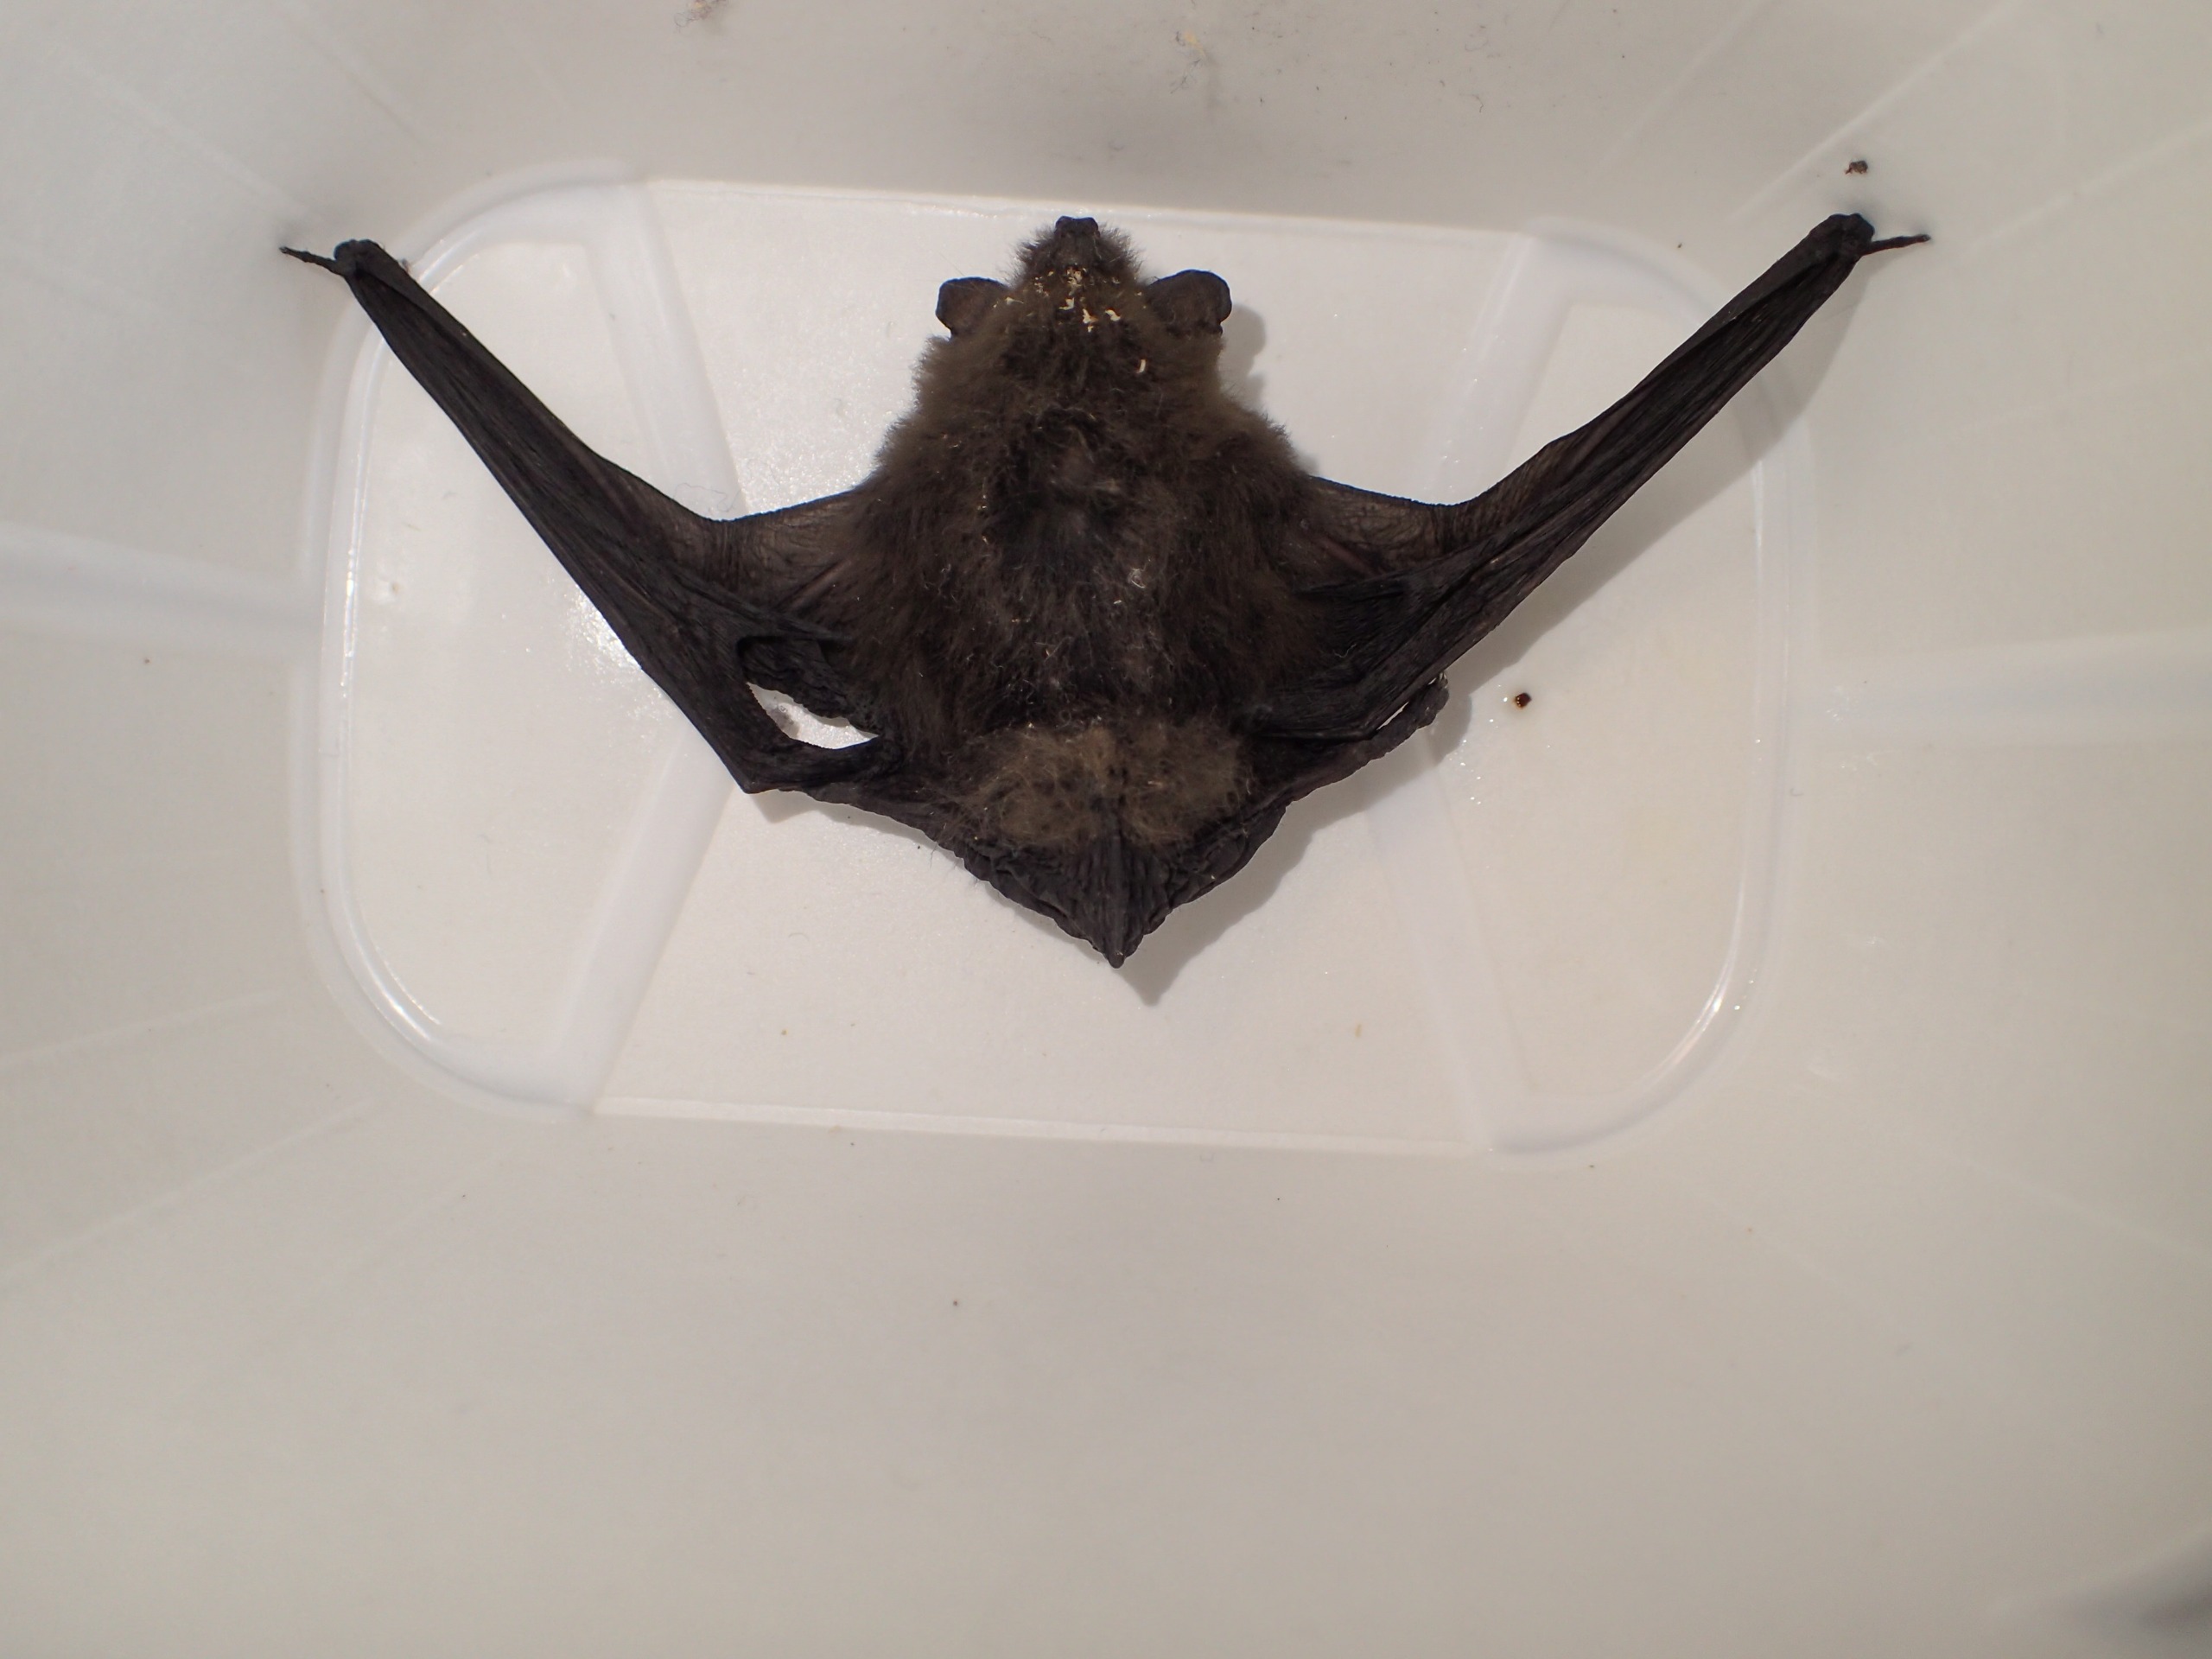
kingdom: Animalia
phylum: Chordata
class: Mammalia
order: Chiroptera
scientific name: Chiroptera
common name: Flagermus
